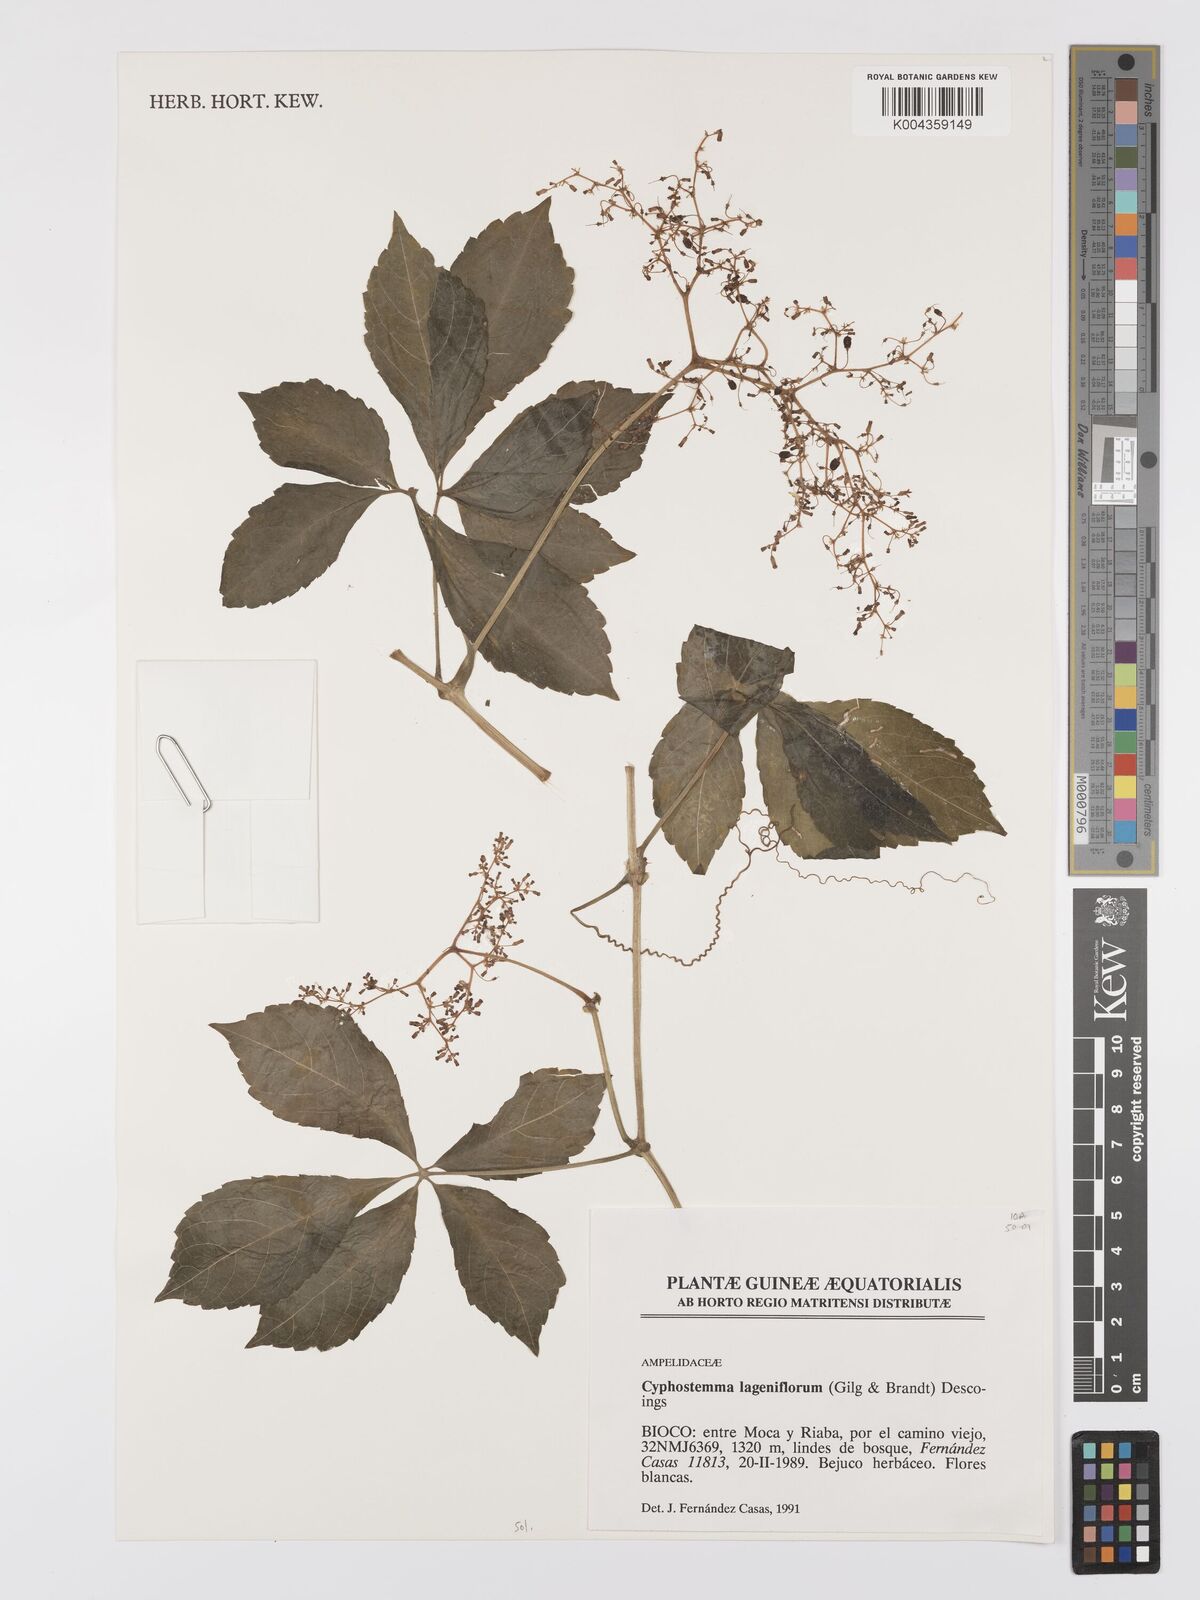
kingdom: Plantae
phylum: Tracheophyta
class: Magnoliopsida
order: Vitales
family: Vitaceae
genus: Cyphostemma
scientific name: Cyphostemma lageniflorum
